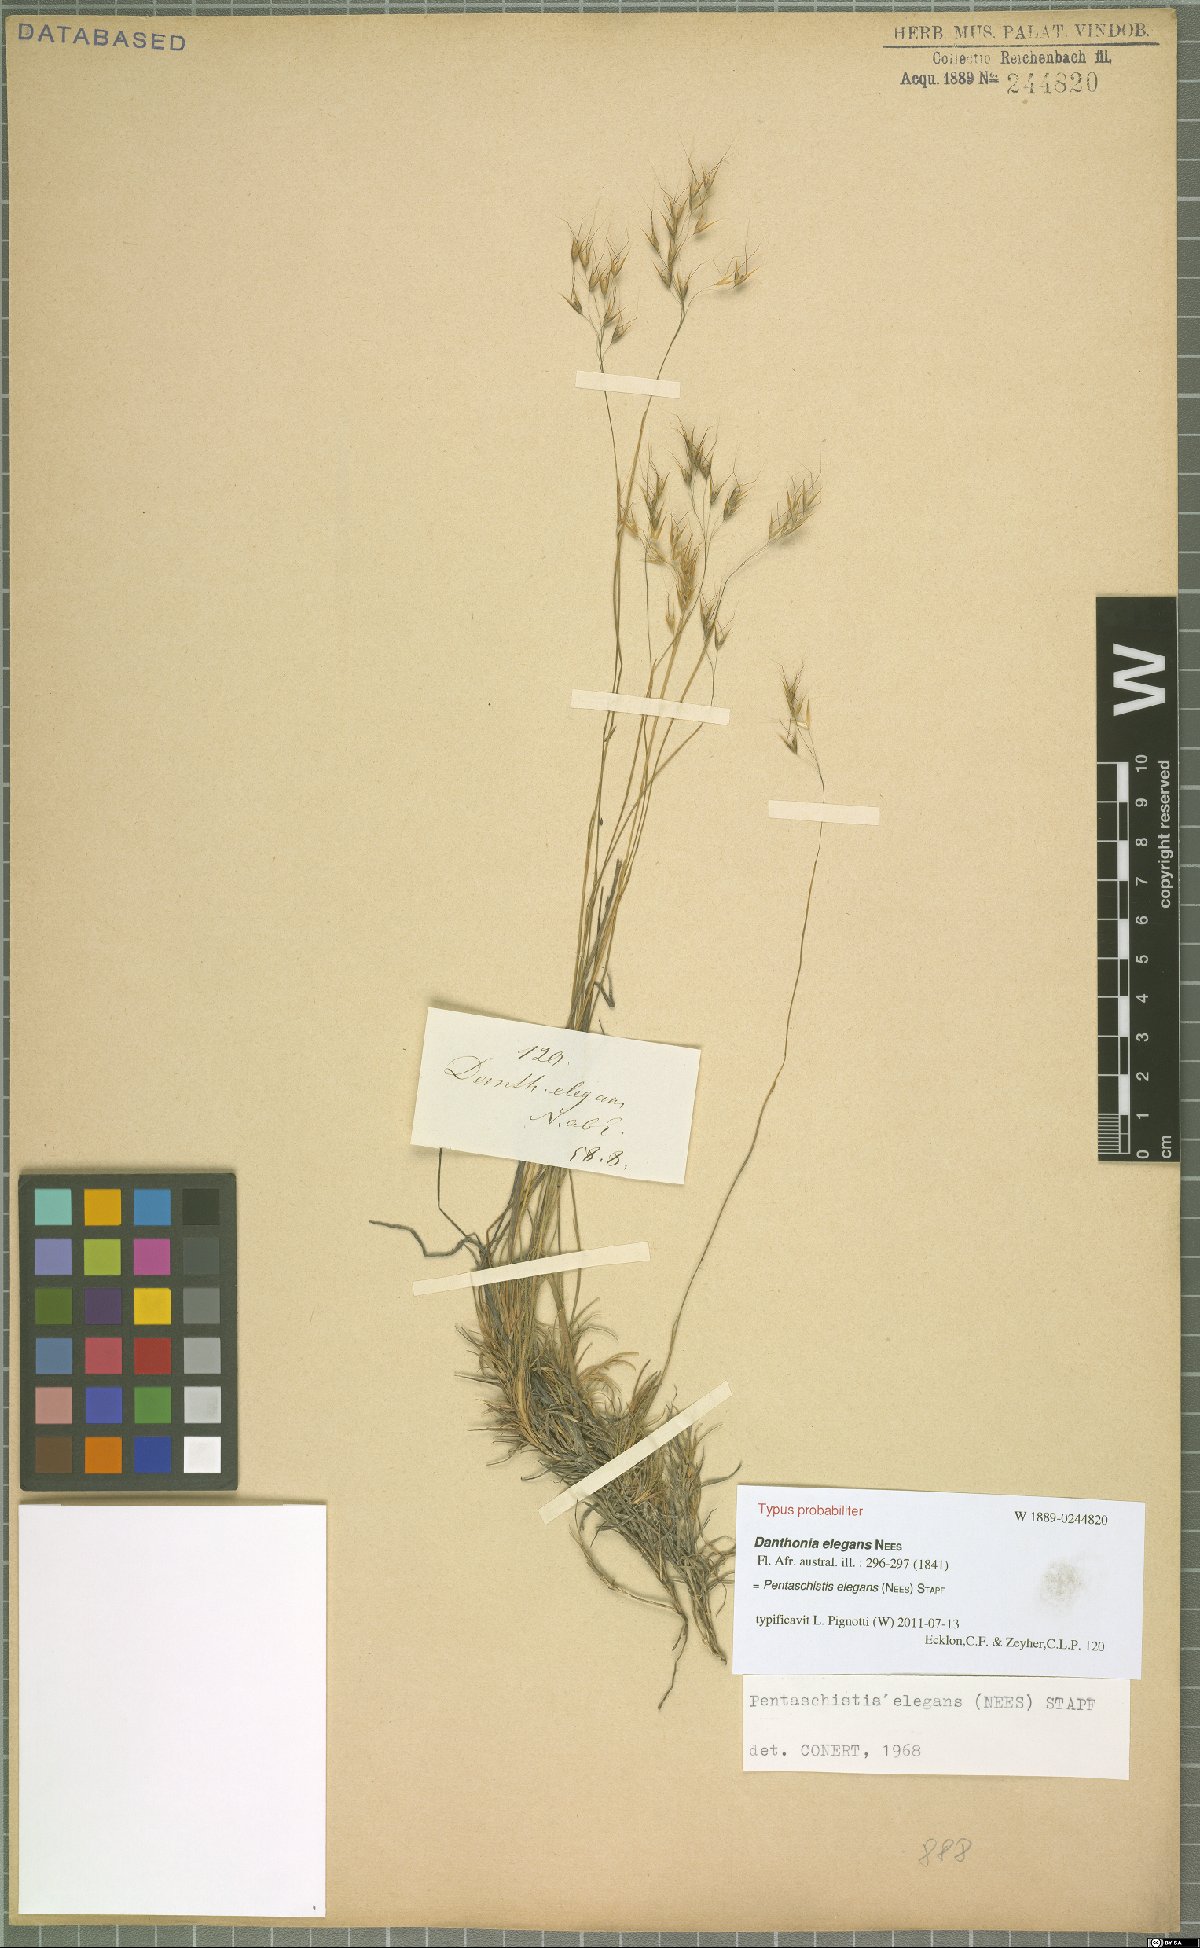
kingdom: Plantae
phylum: Tracheophyta
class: Liliopsida
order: Poales
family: Poaceae
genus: Pentameris
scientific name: Pentameris elegans
